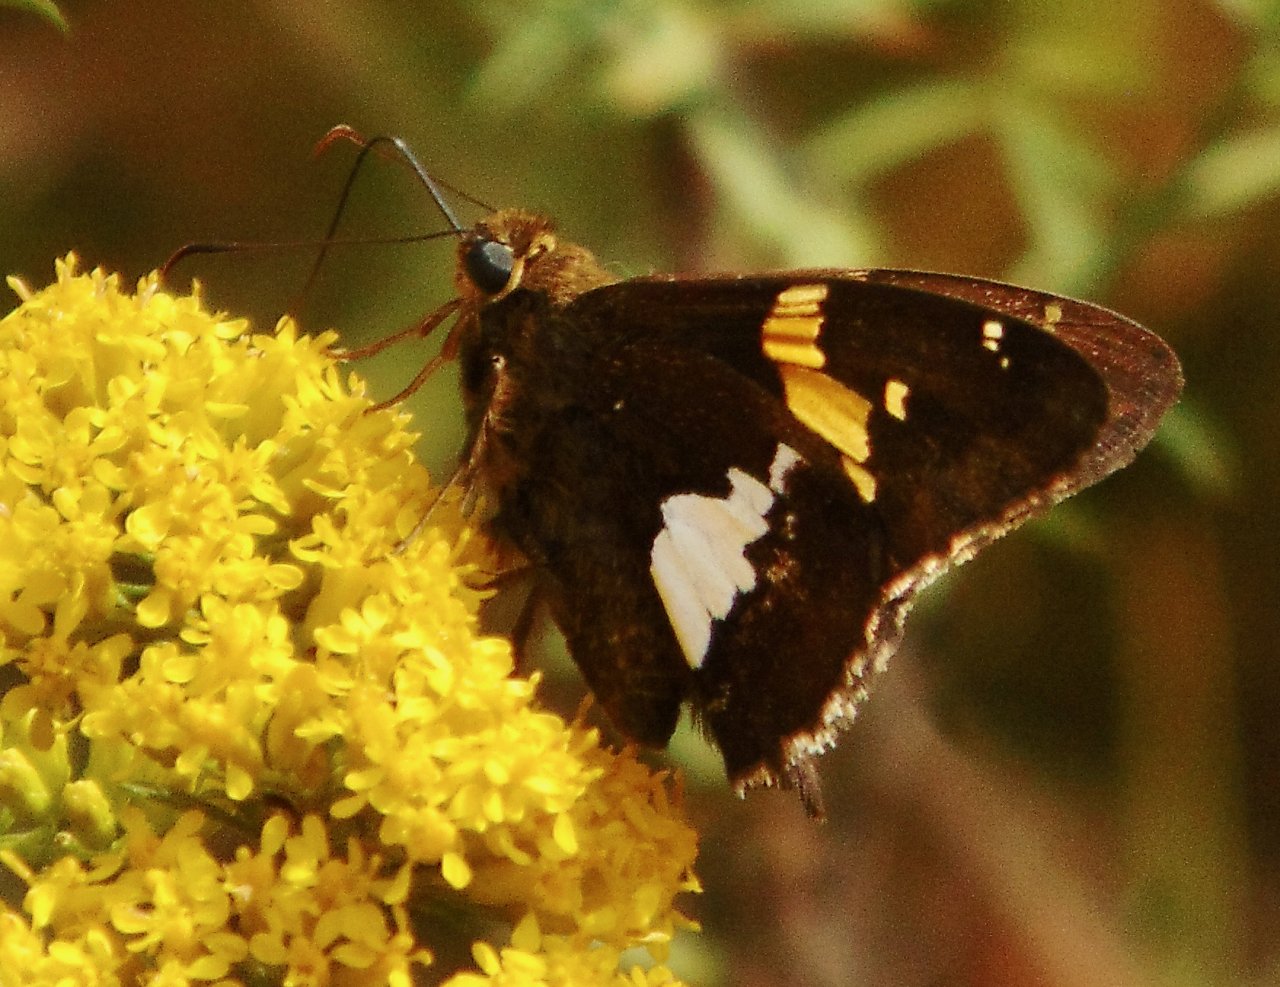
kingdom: Animalia
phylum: Arthropoda
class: Insecta
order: Lepidoptera
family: Hesperiidae
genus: Epargyreus
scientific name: Epargyreus clarus
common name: Silver-spotted Skipper
